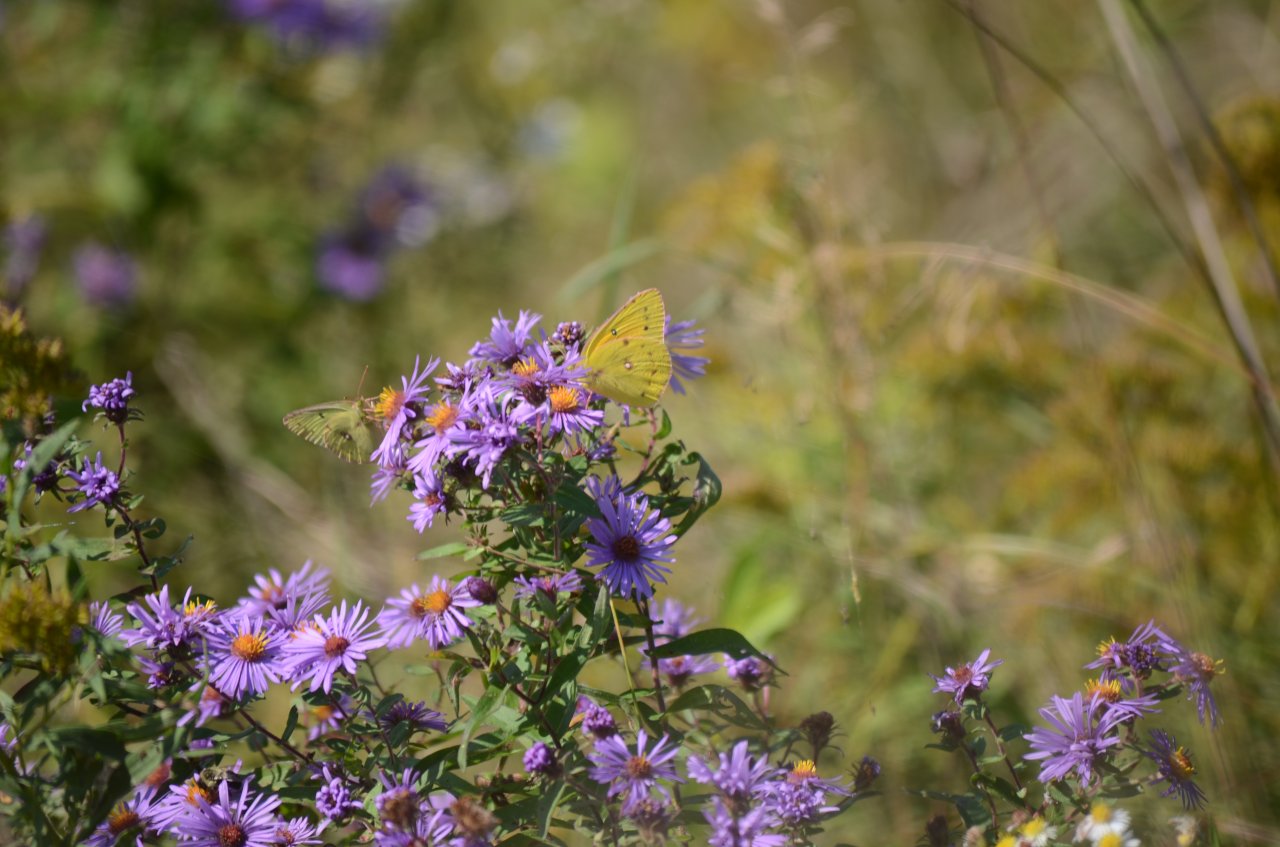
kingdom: Animalia
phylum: Arthropoda
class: Insecta
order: Lepidoptera
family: Pieridae
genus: Colias
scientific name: Colias eurytheme
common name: Orange Sulphur
